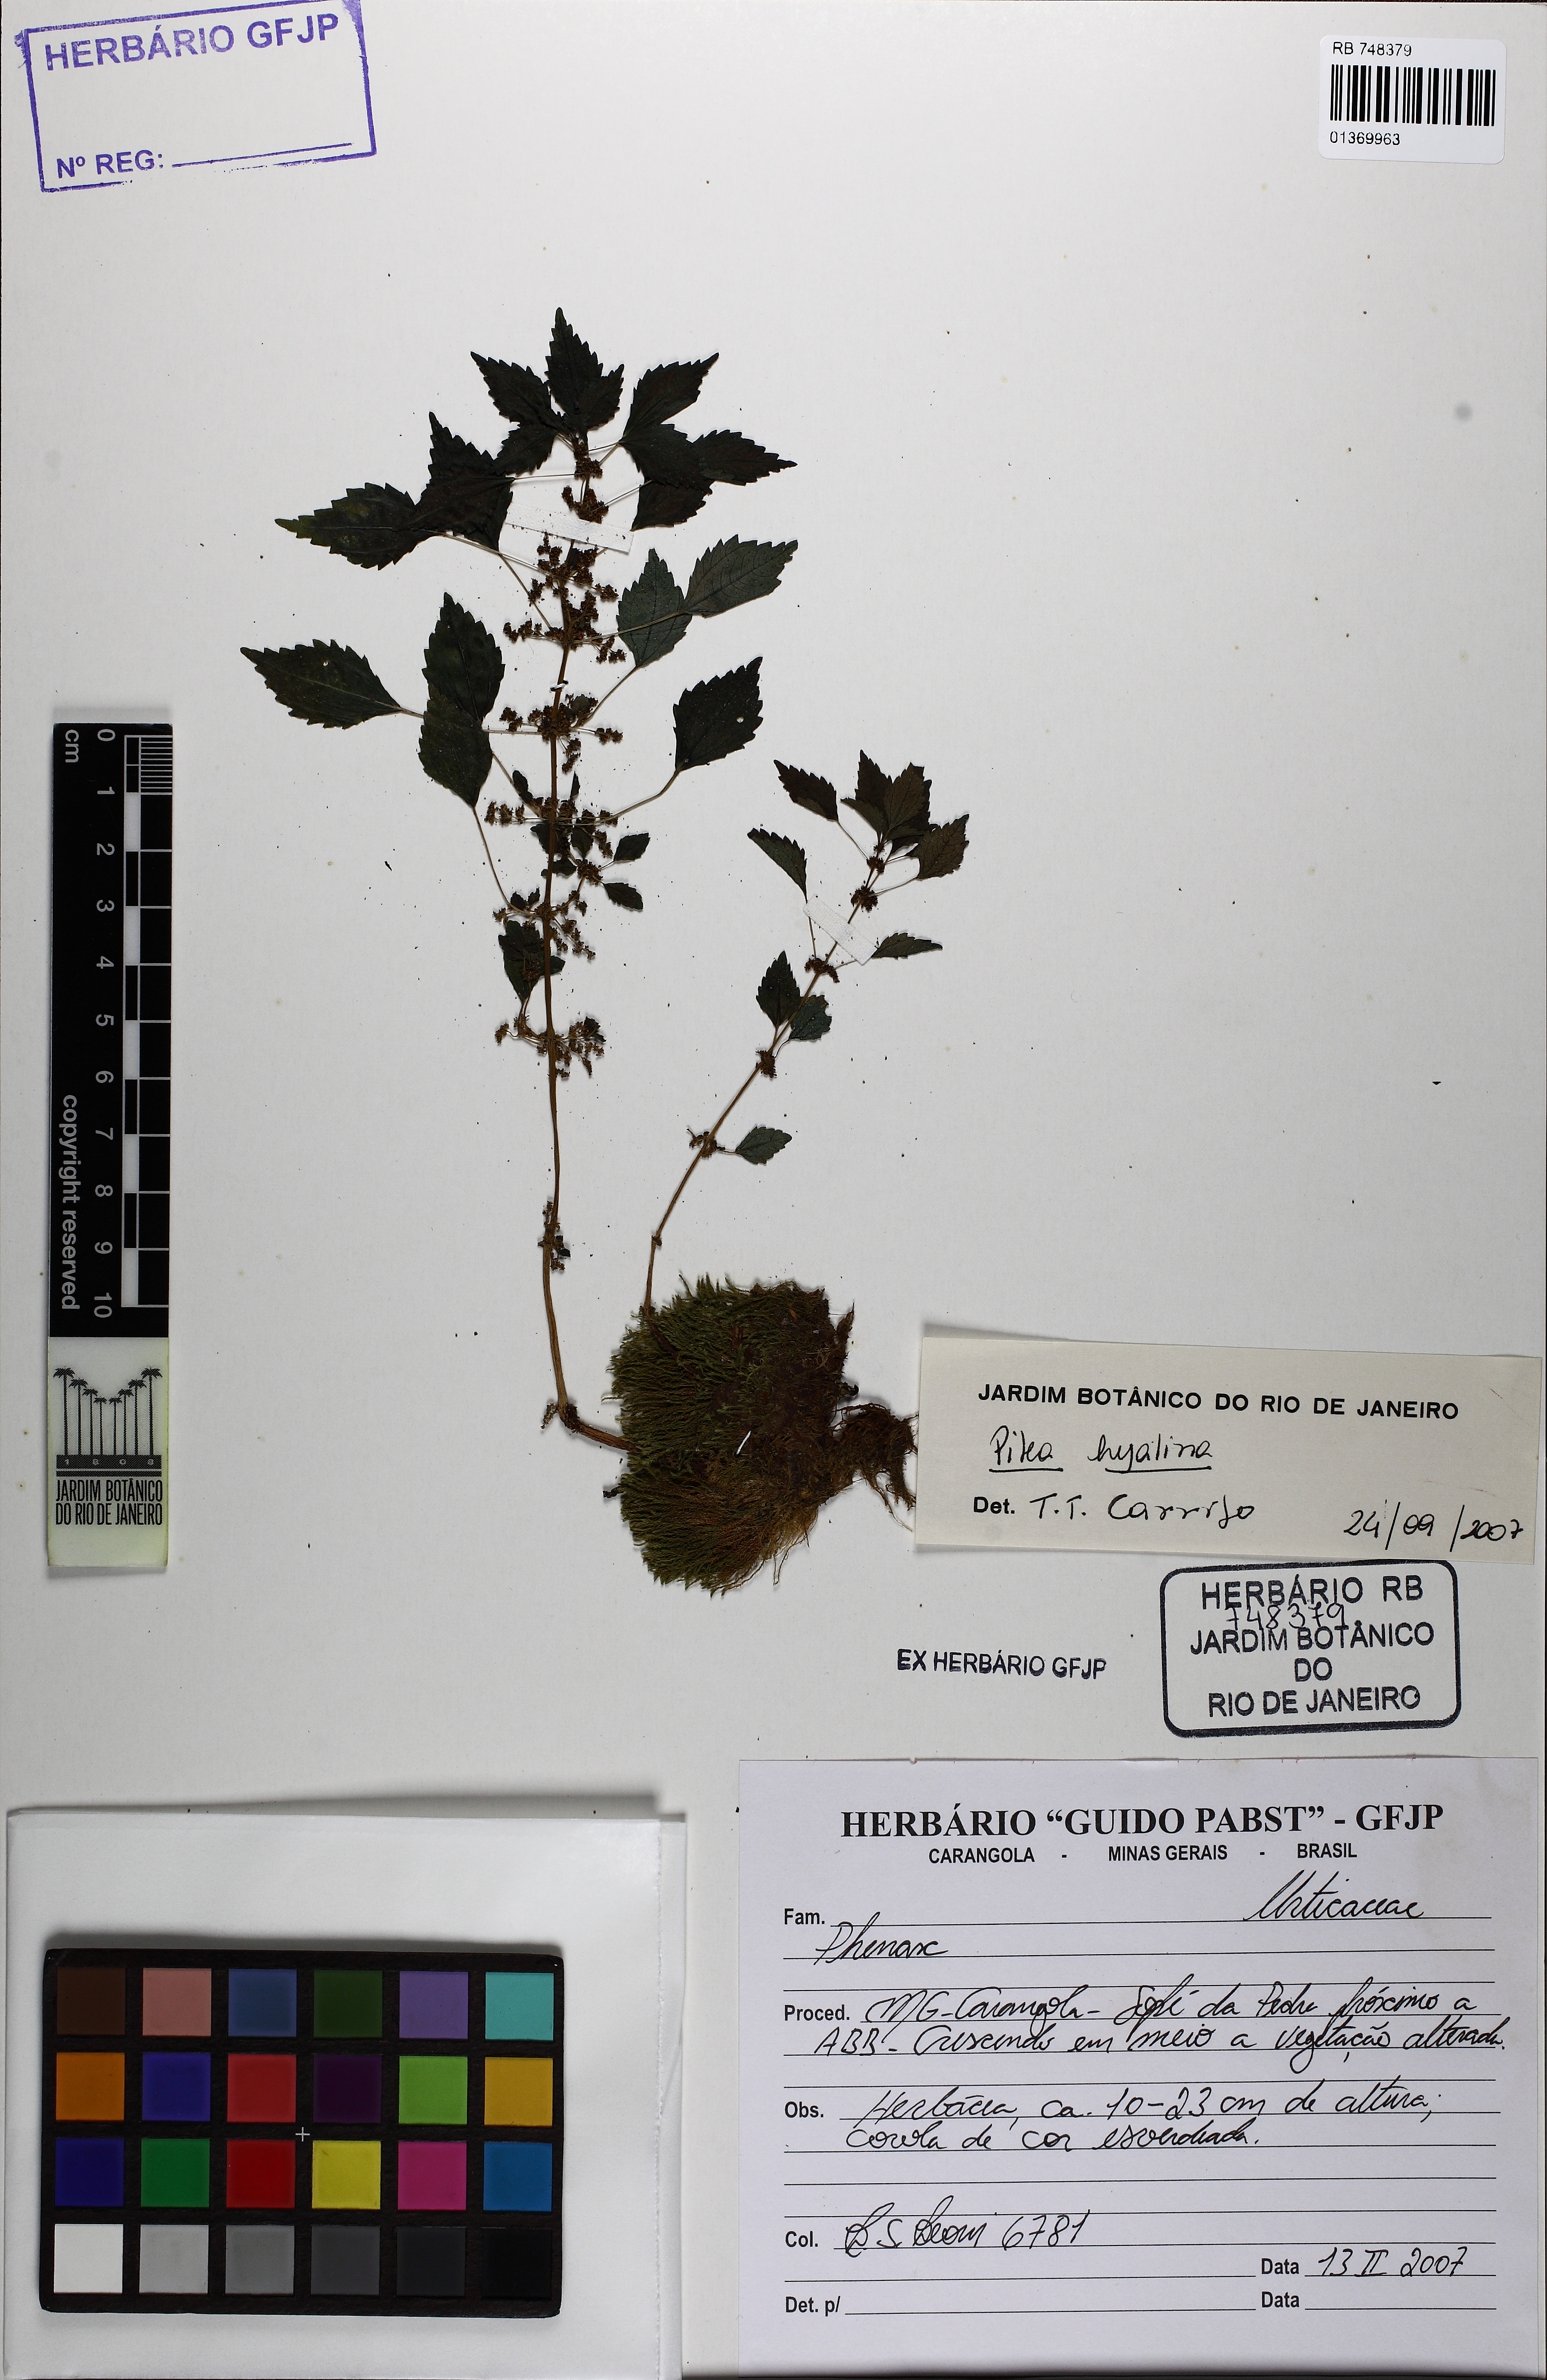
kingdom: Plantae
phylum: Tracheophyta
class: Magnoliopsida
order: Rosales
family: Urticaceae
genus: Pilea
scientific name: Pilea hyalina
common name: Virdrillo
